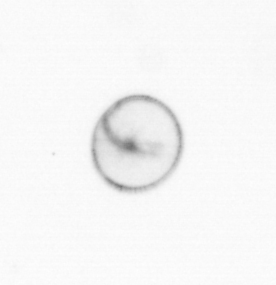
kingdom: Chromista
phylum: Myzozoa
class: Dinophyceae
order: Noctilucales
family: Noctilucaceae
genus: Noctiluca
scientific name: Noctiluca scintillans
